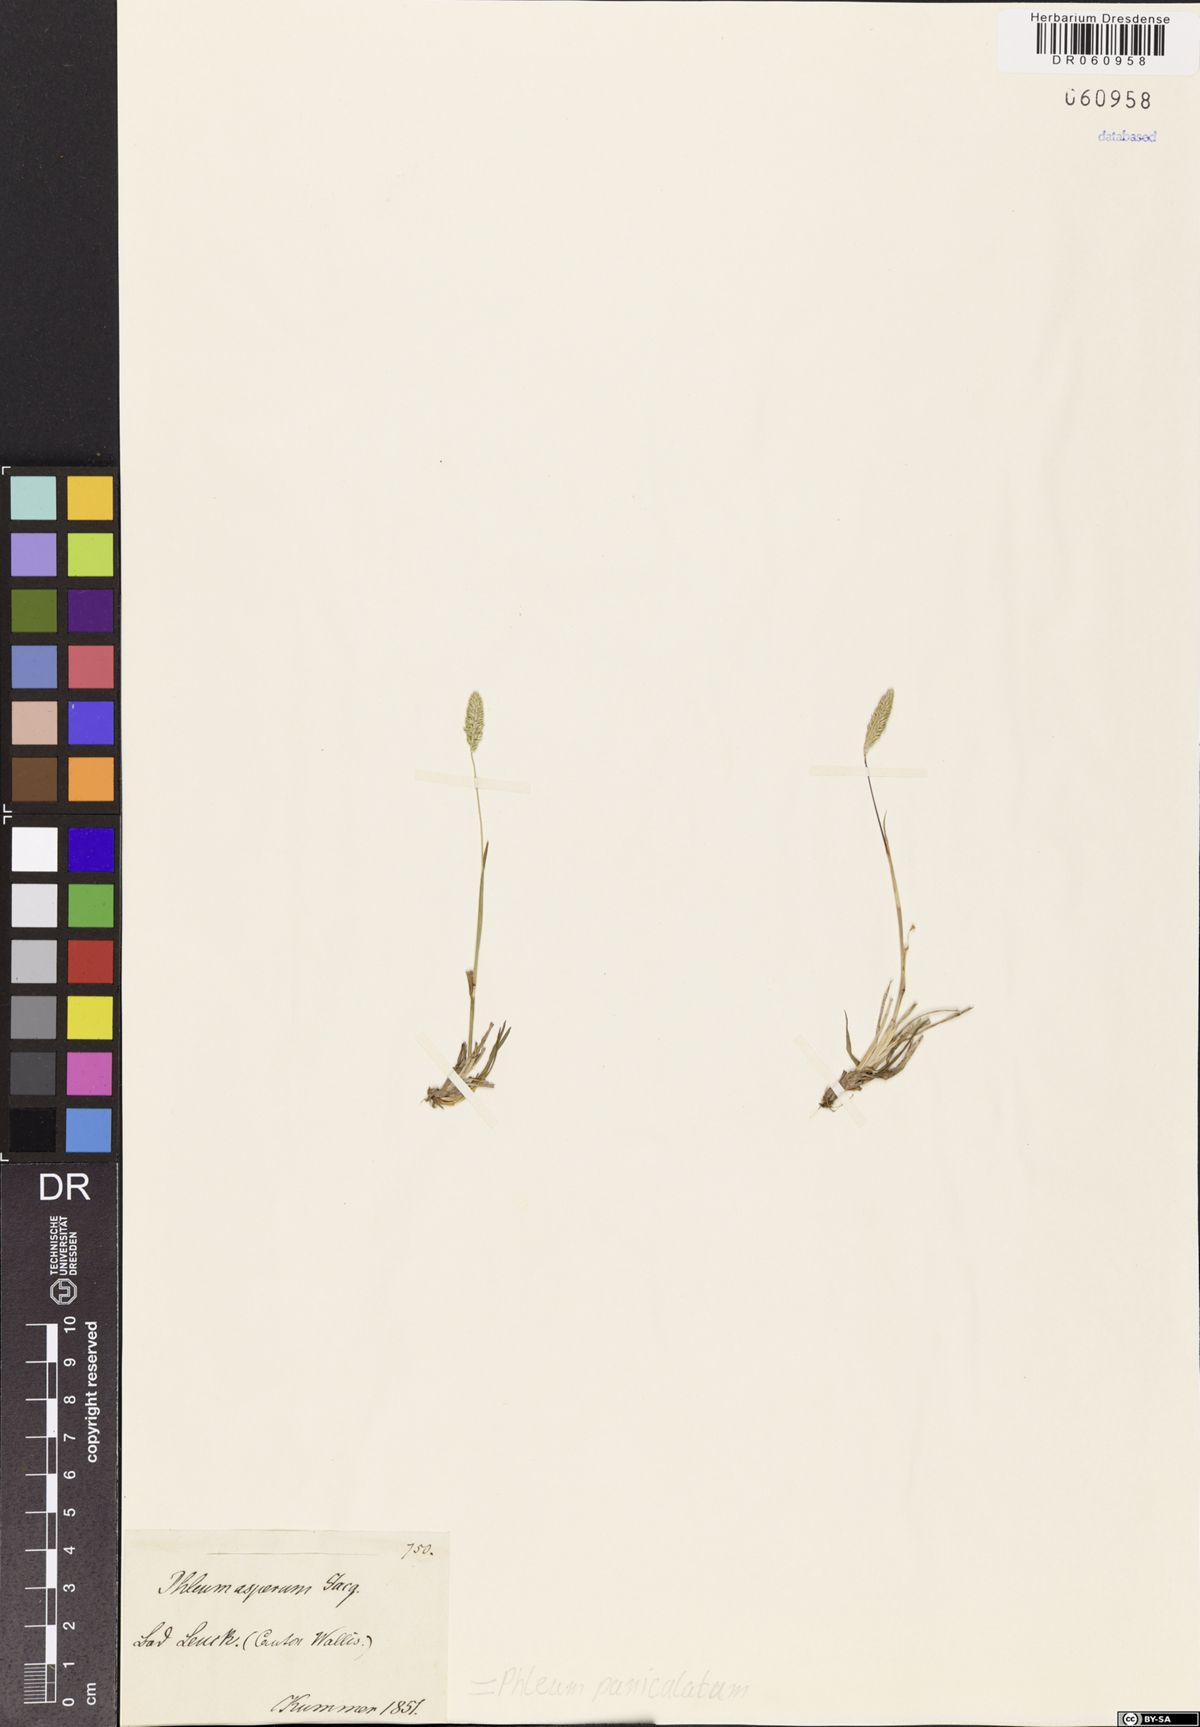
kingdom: Plantae
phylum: Tracheophyta
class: Liliopsida
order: Poales
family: Poaceae
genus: Phleum
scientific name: Phleum paniculatum
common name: British timothy
